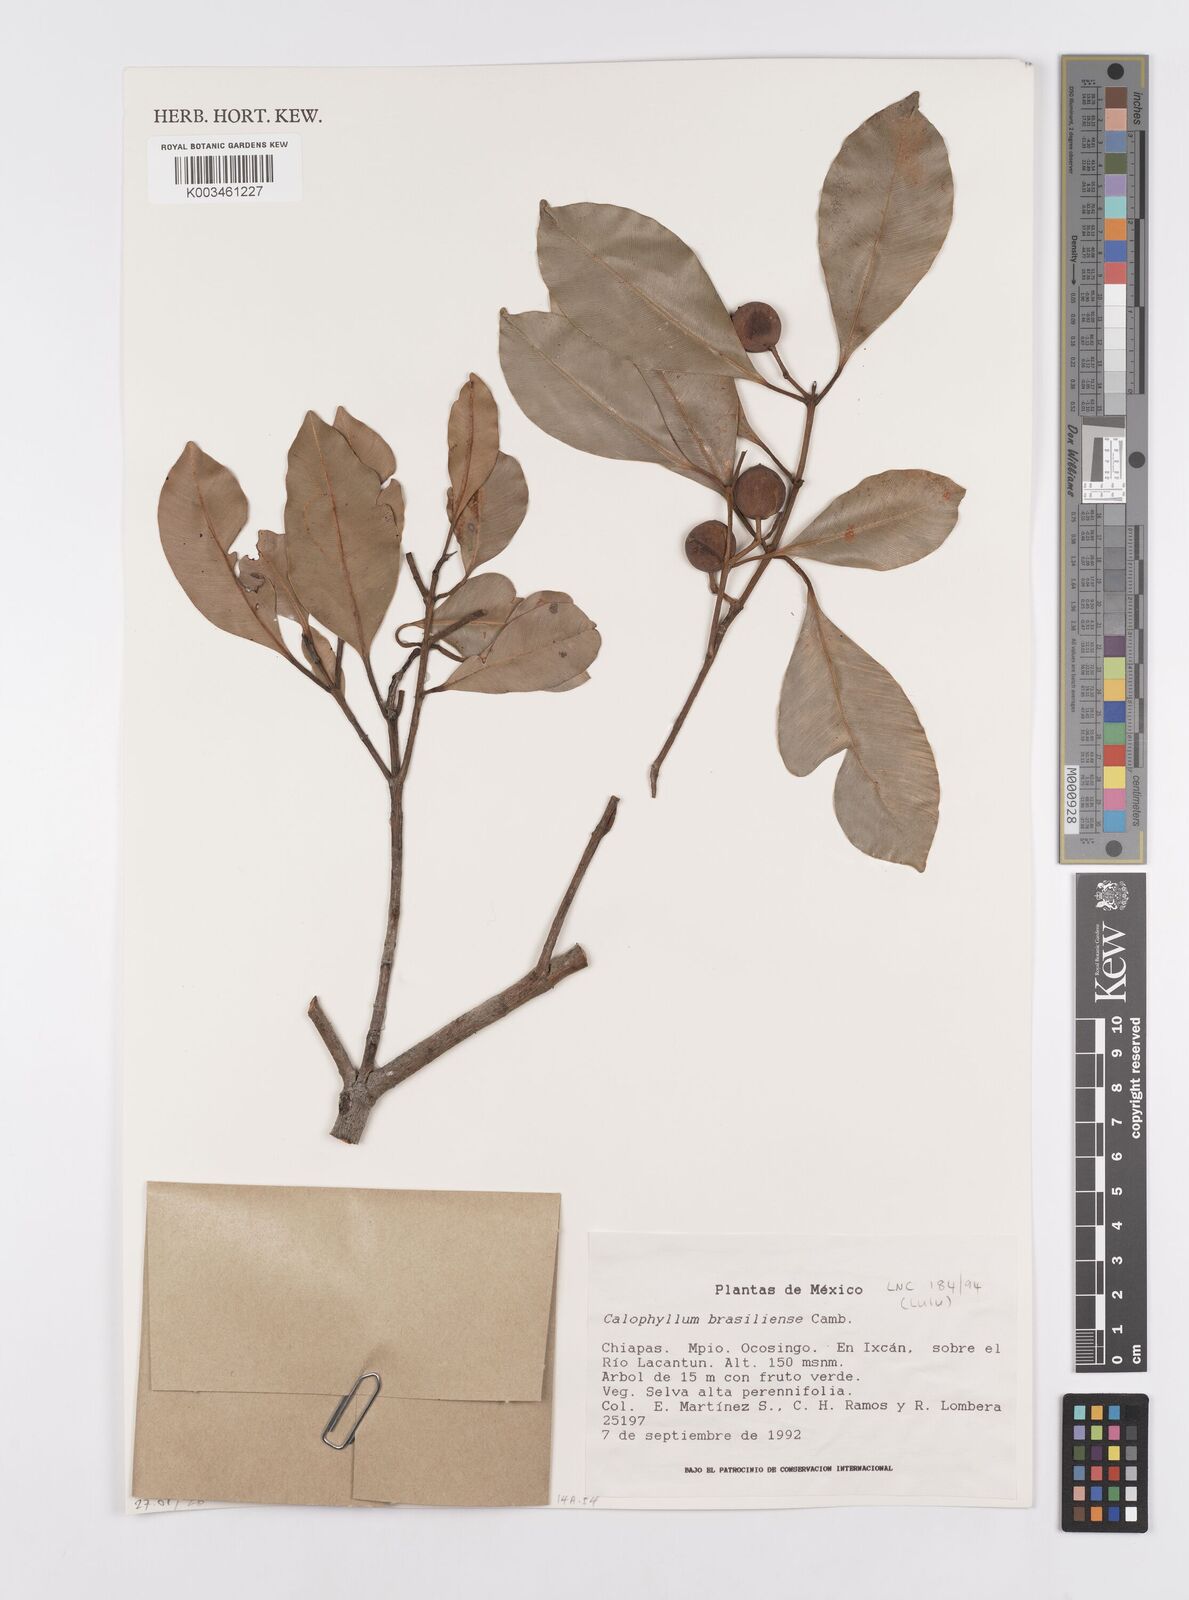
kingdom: Plantae
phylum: Tracheophyta
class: Magnoliopsida
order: Malpighiales
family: Calophyllaceae
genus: Calophyllum
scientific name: Calophyllum brasiliense
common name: Santa maria
